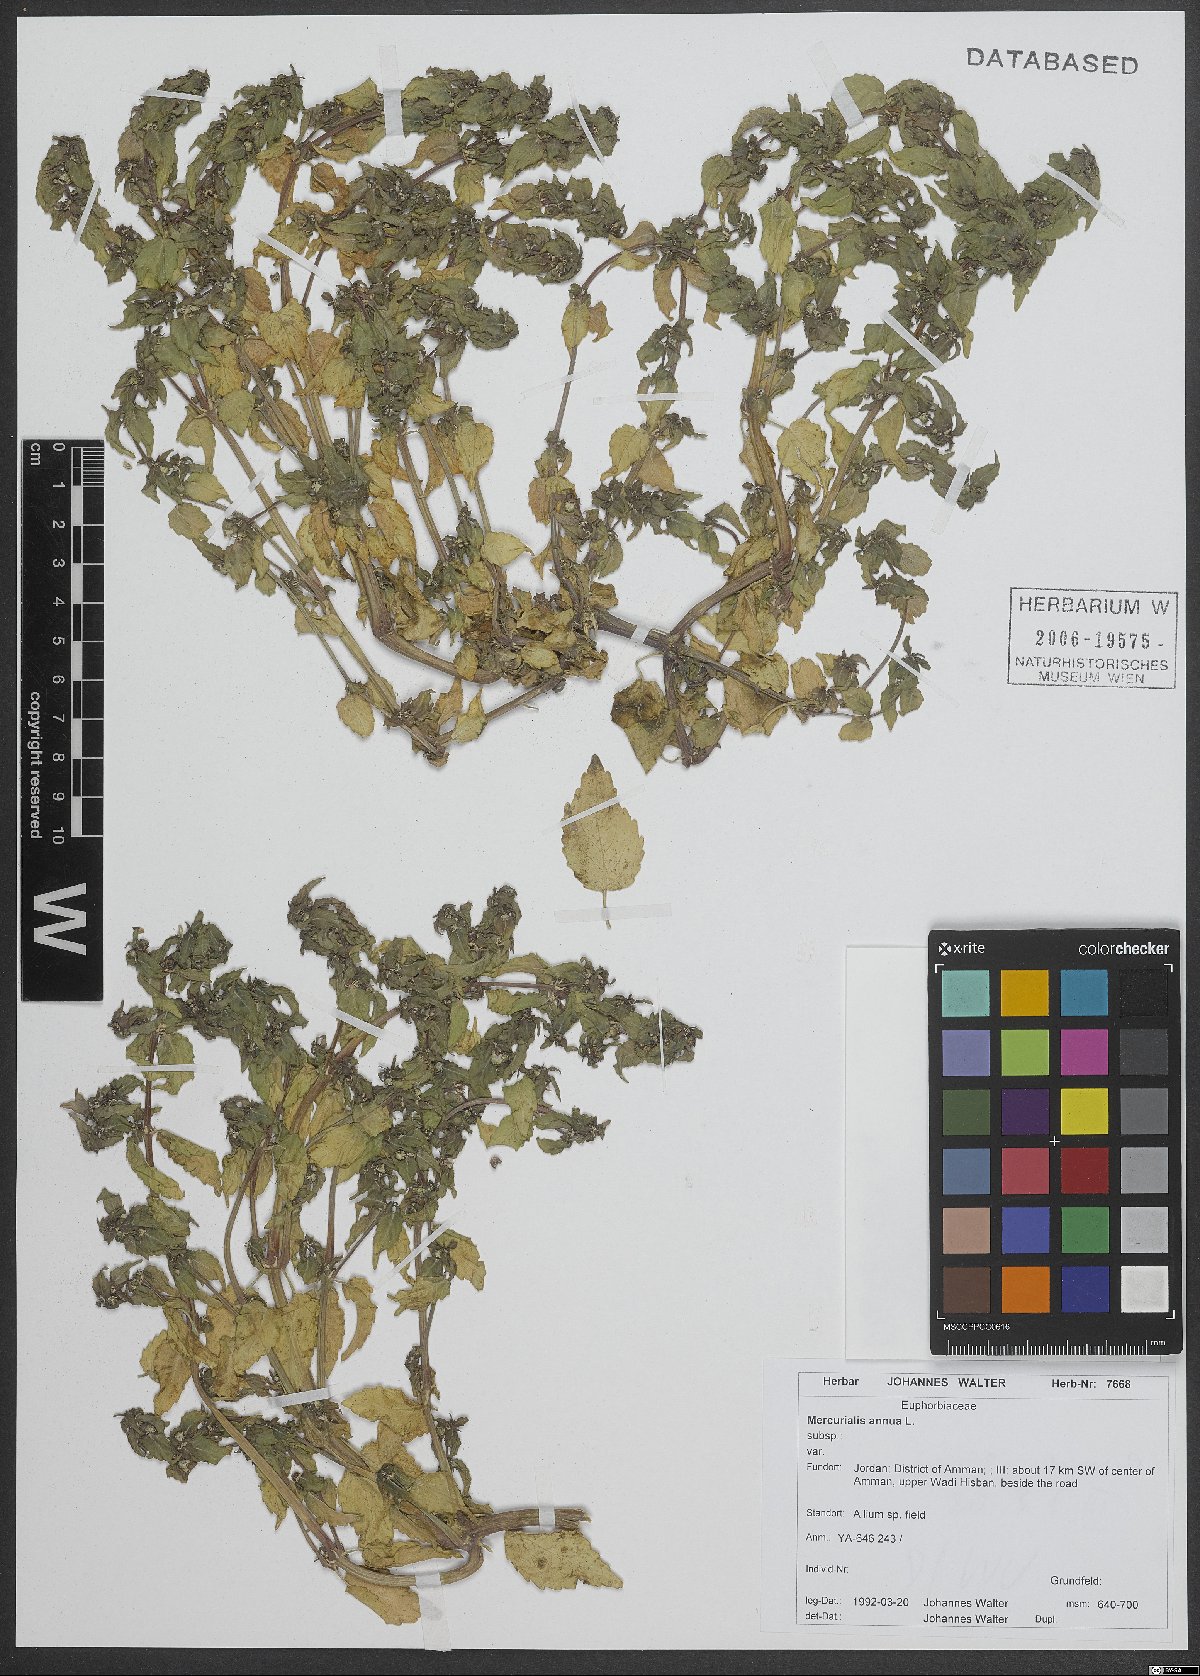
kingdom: Plantae
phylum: Tracheophyta
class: Magnoliopsida
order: Malpighiales
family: Euphorbiaceae
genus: Mercurialis
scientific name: Mercurialis annua
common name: Annual mercury
